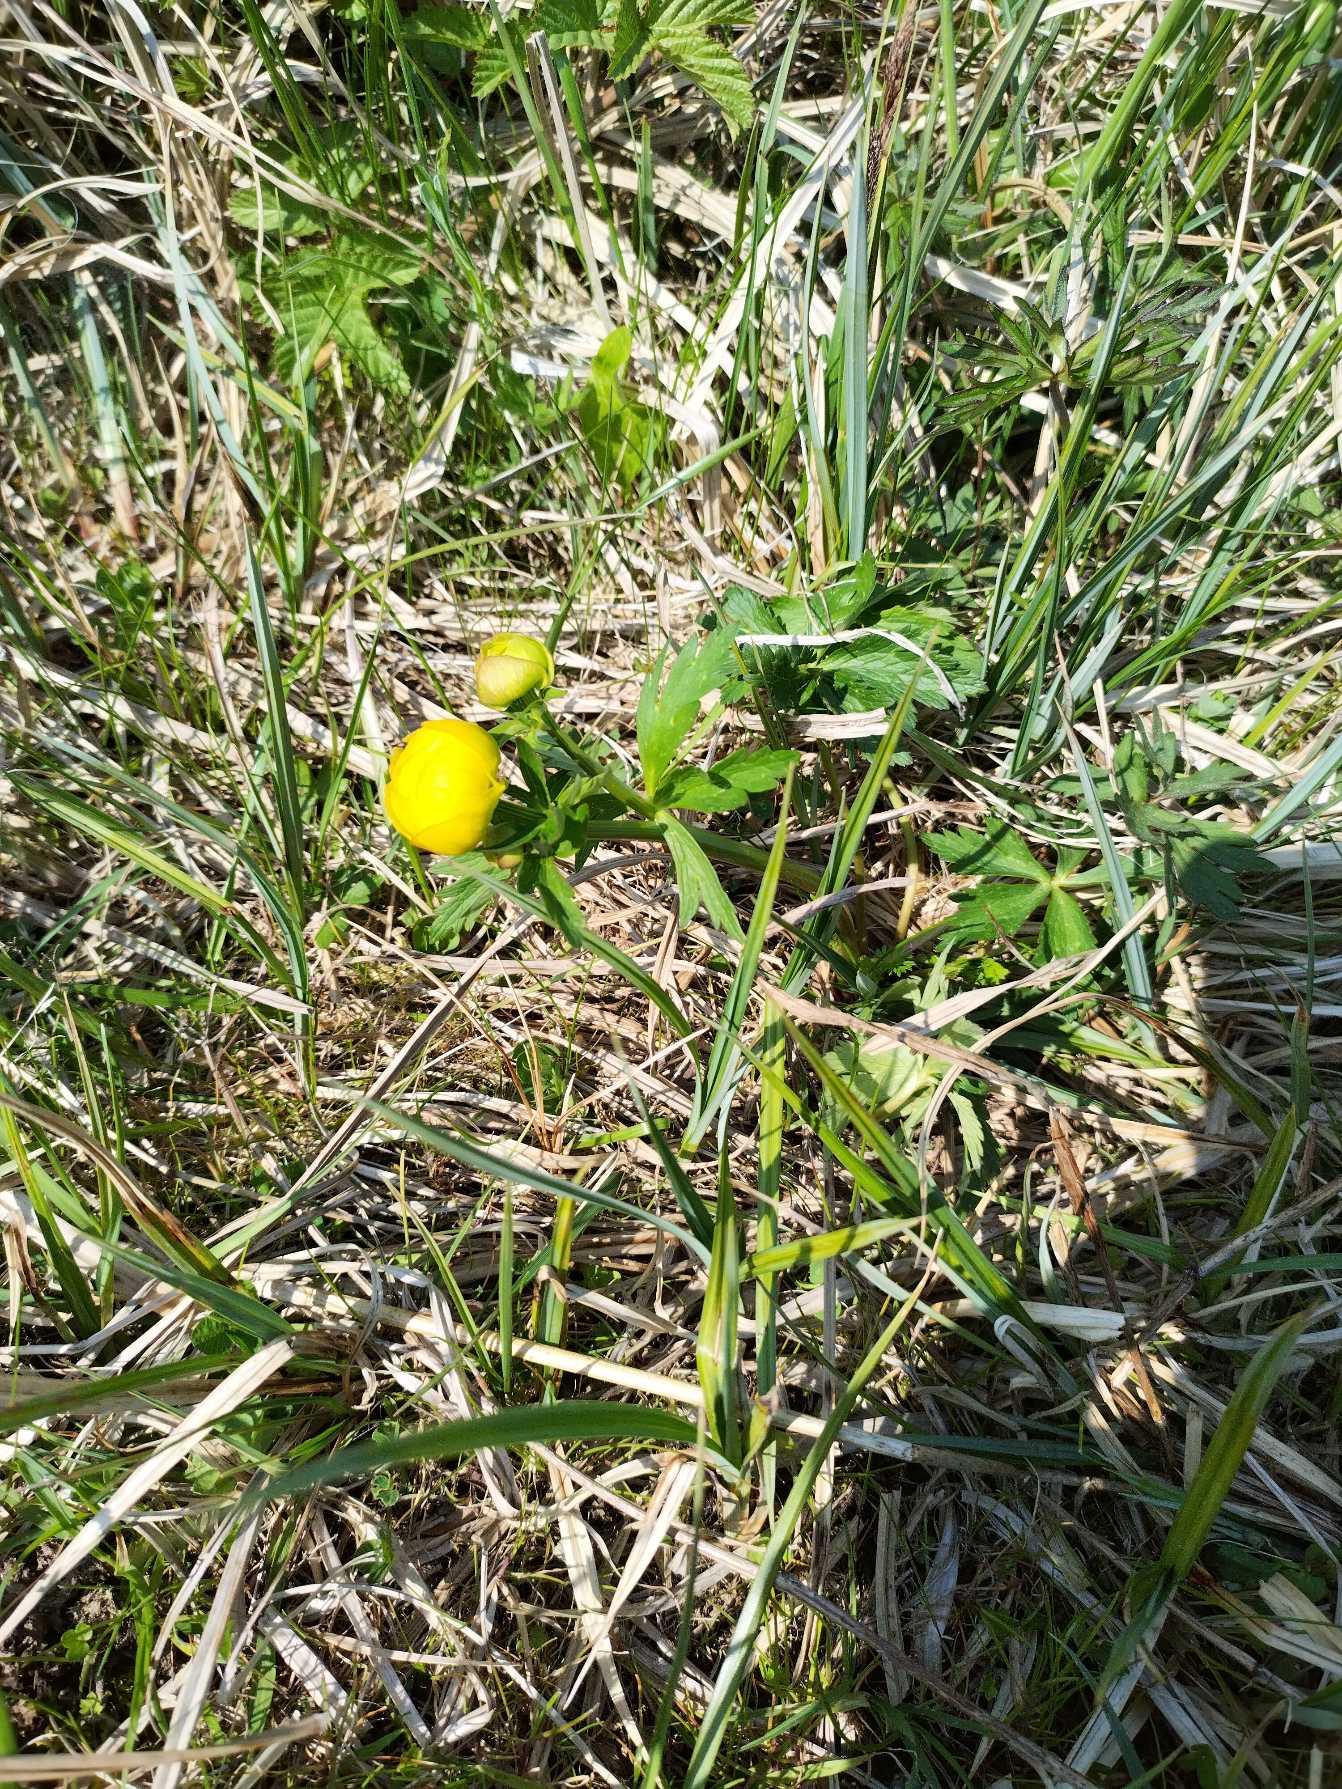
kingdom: Plantae
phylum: Tracheophyta
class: Magnoliopsida
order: Ranunculales
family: Ranunculaceae
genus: Trollius
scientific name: Trollius europaeus
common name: Engblomme
